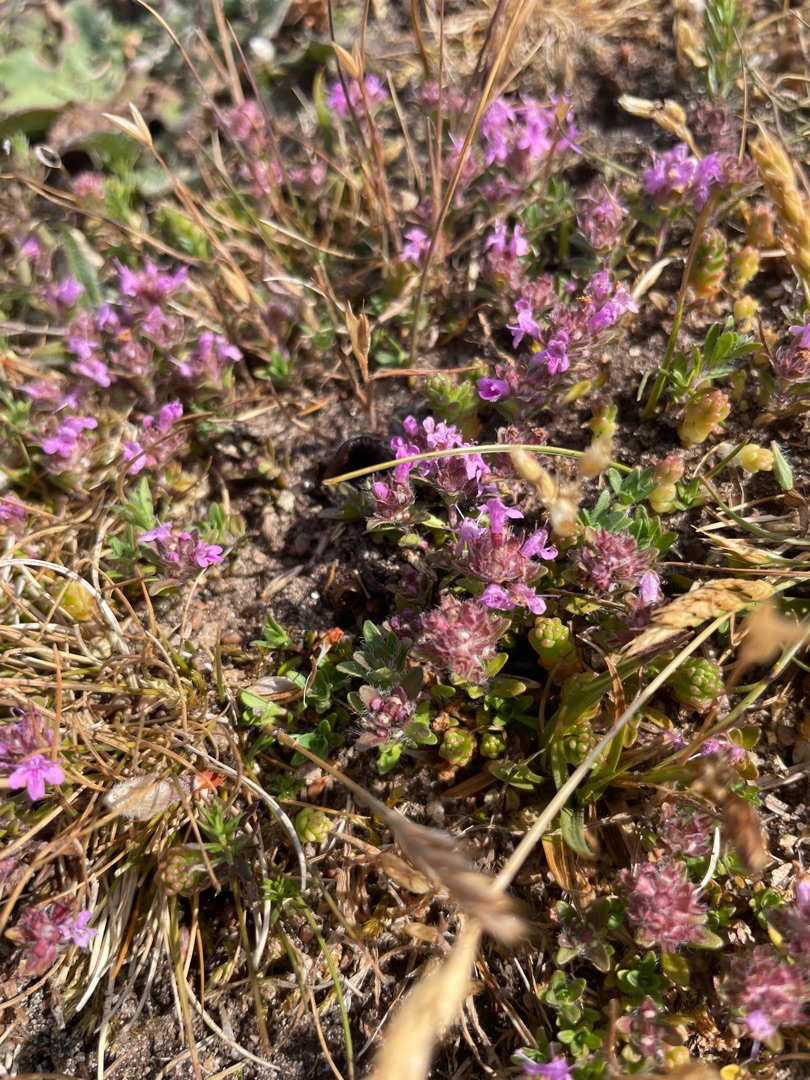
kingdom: Plantae
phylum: Tracheophyta
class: Magnoliopsida
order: Lamiales
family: Lamiaceae
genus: Thymus
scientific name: Thymus serpyllum
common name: Smalbladet timian
